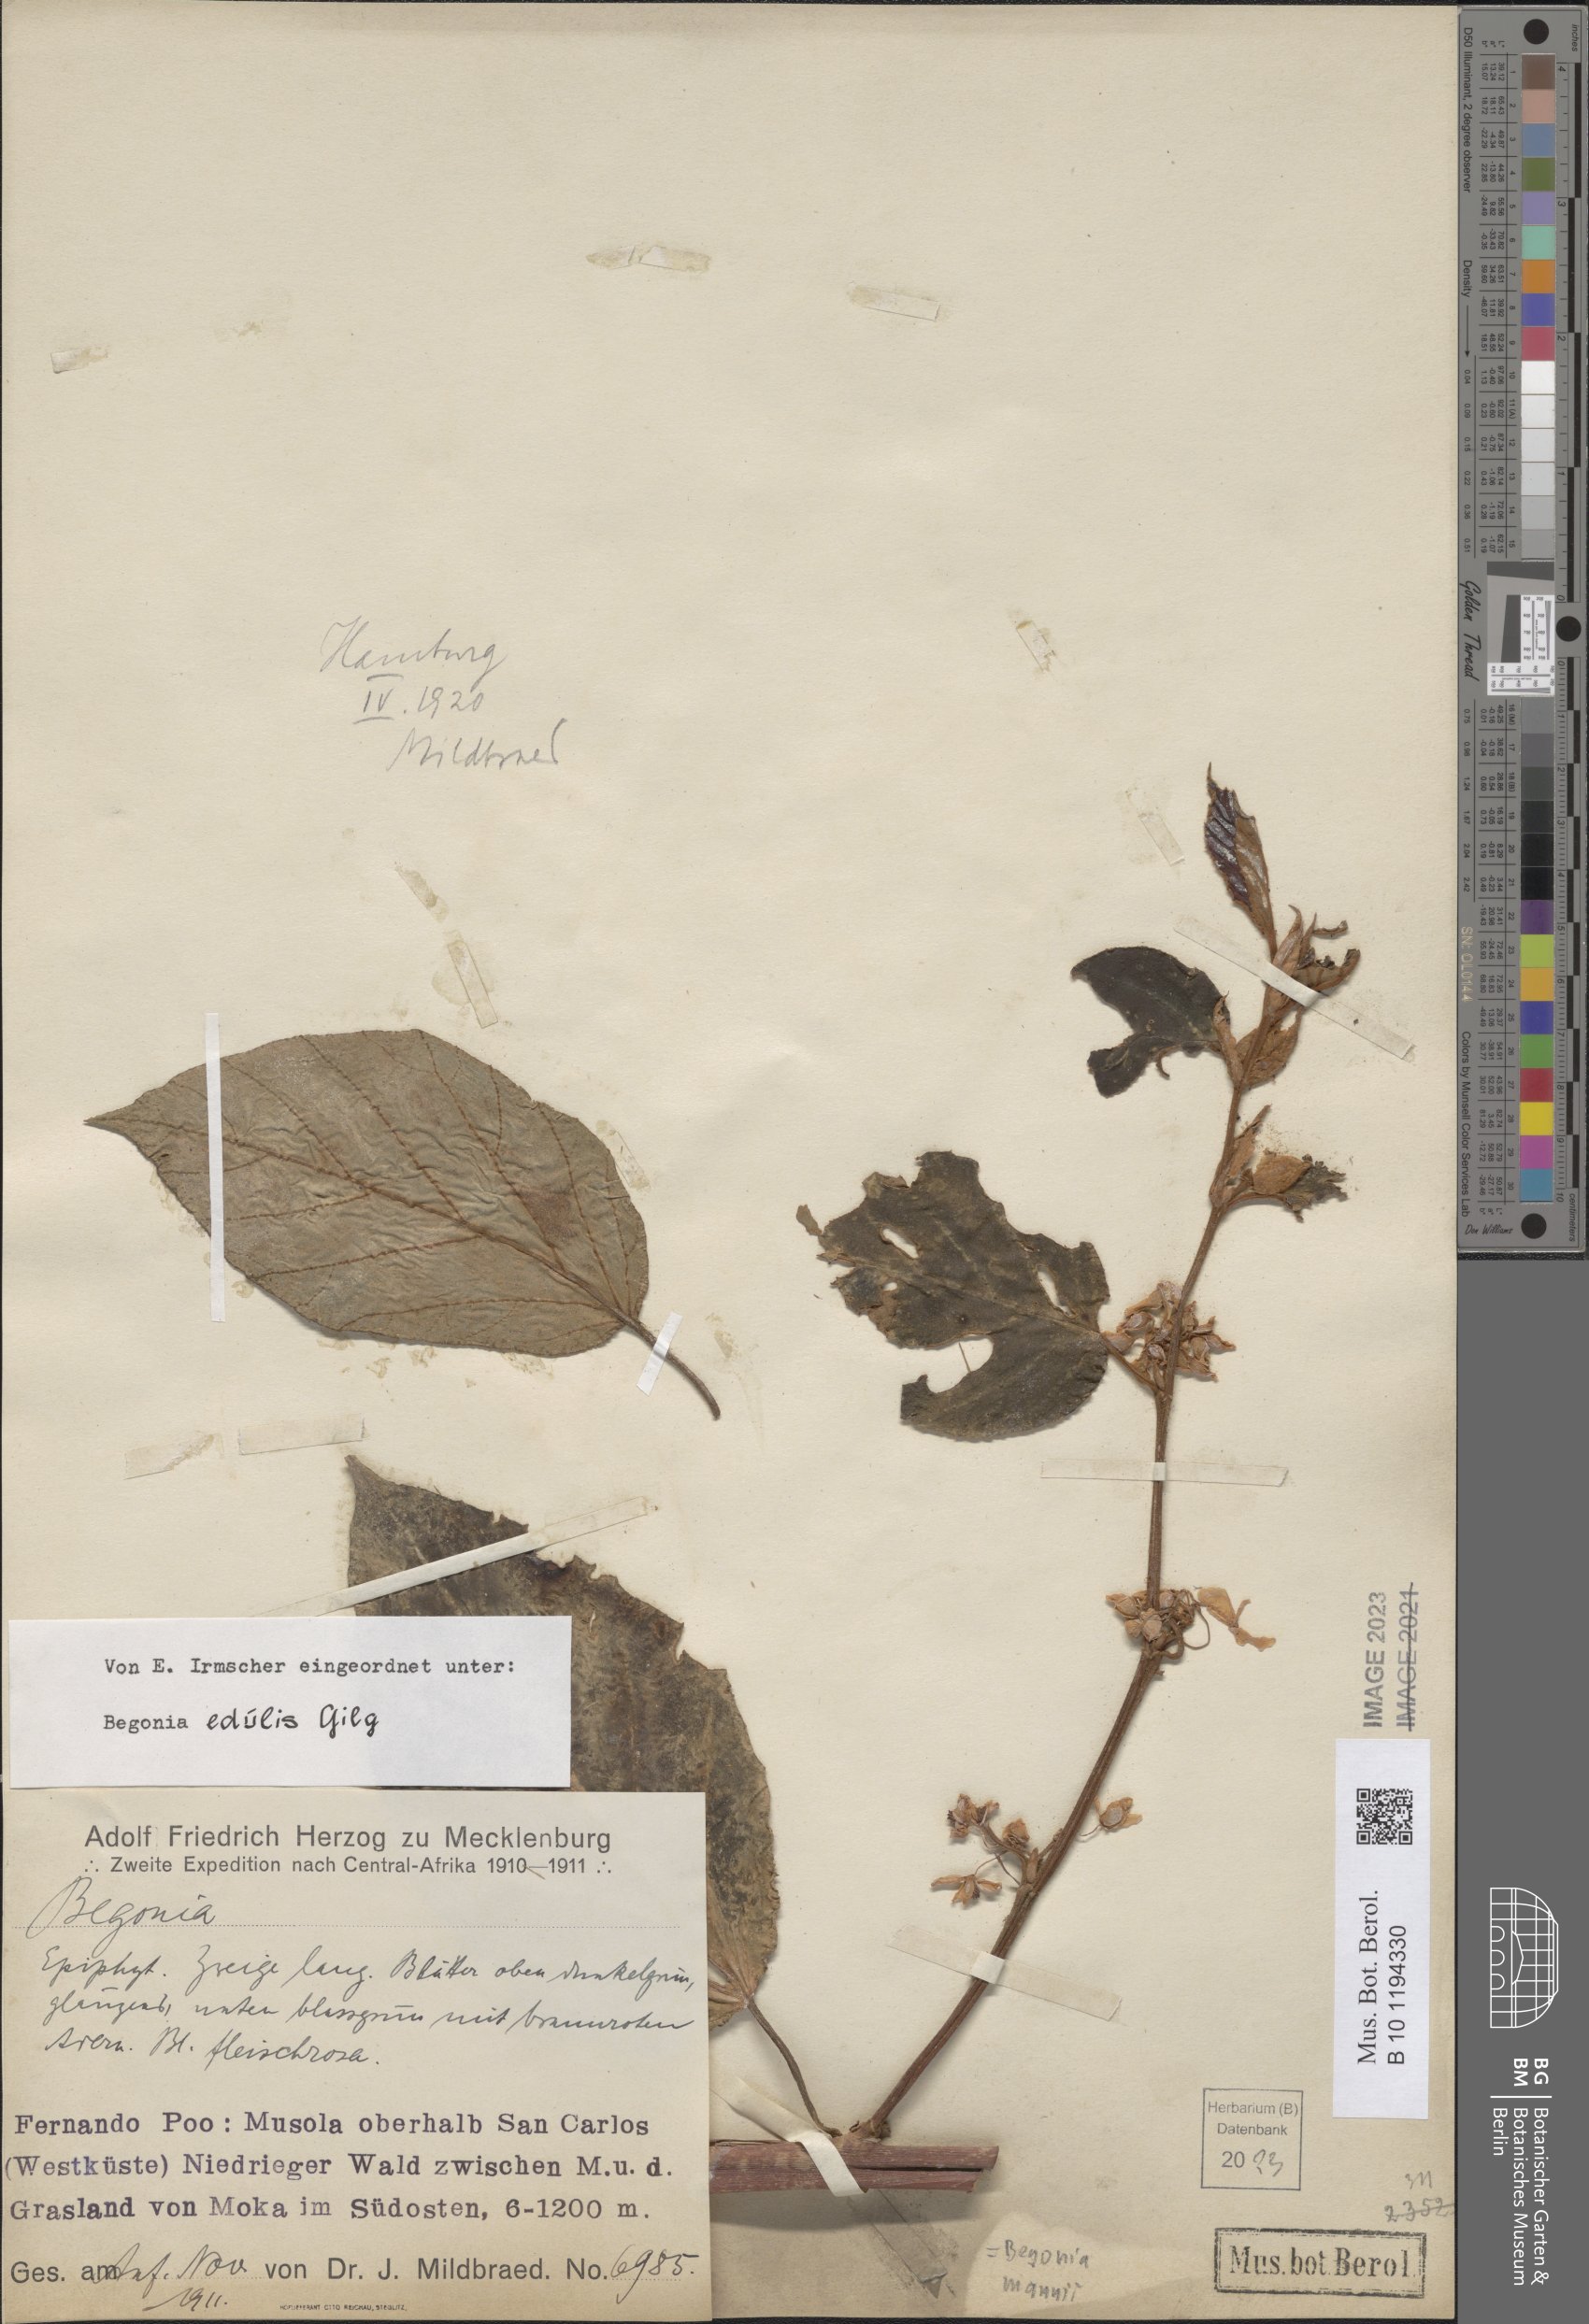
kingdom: Plantae
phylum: Tracheophyta
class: Magnoliopsida
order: Cucurbitales
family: Begoniaceae
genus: Begonia
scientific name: Begonia mannii
